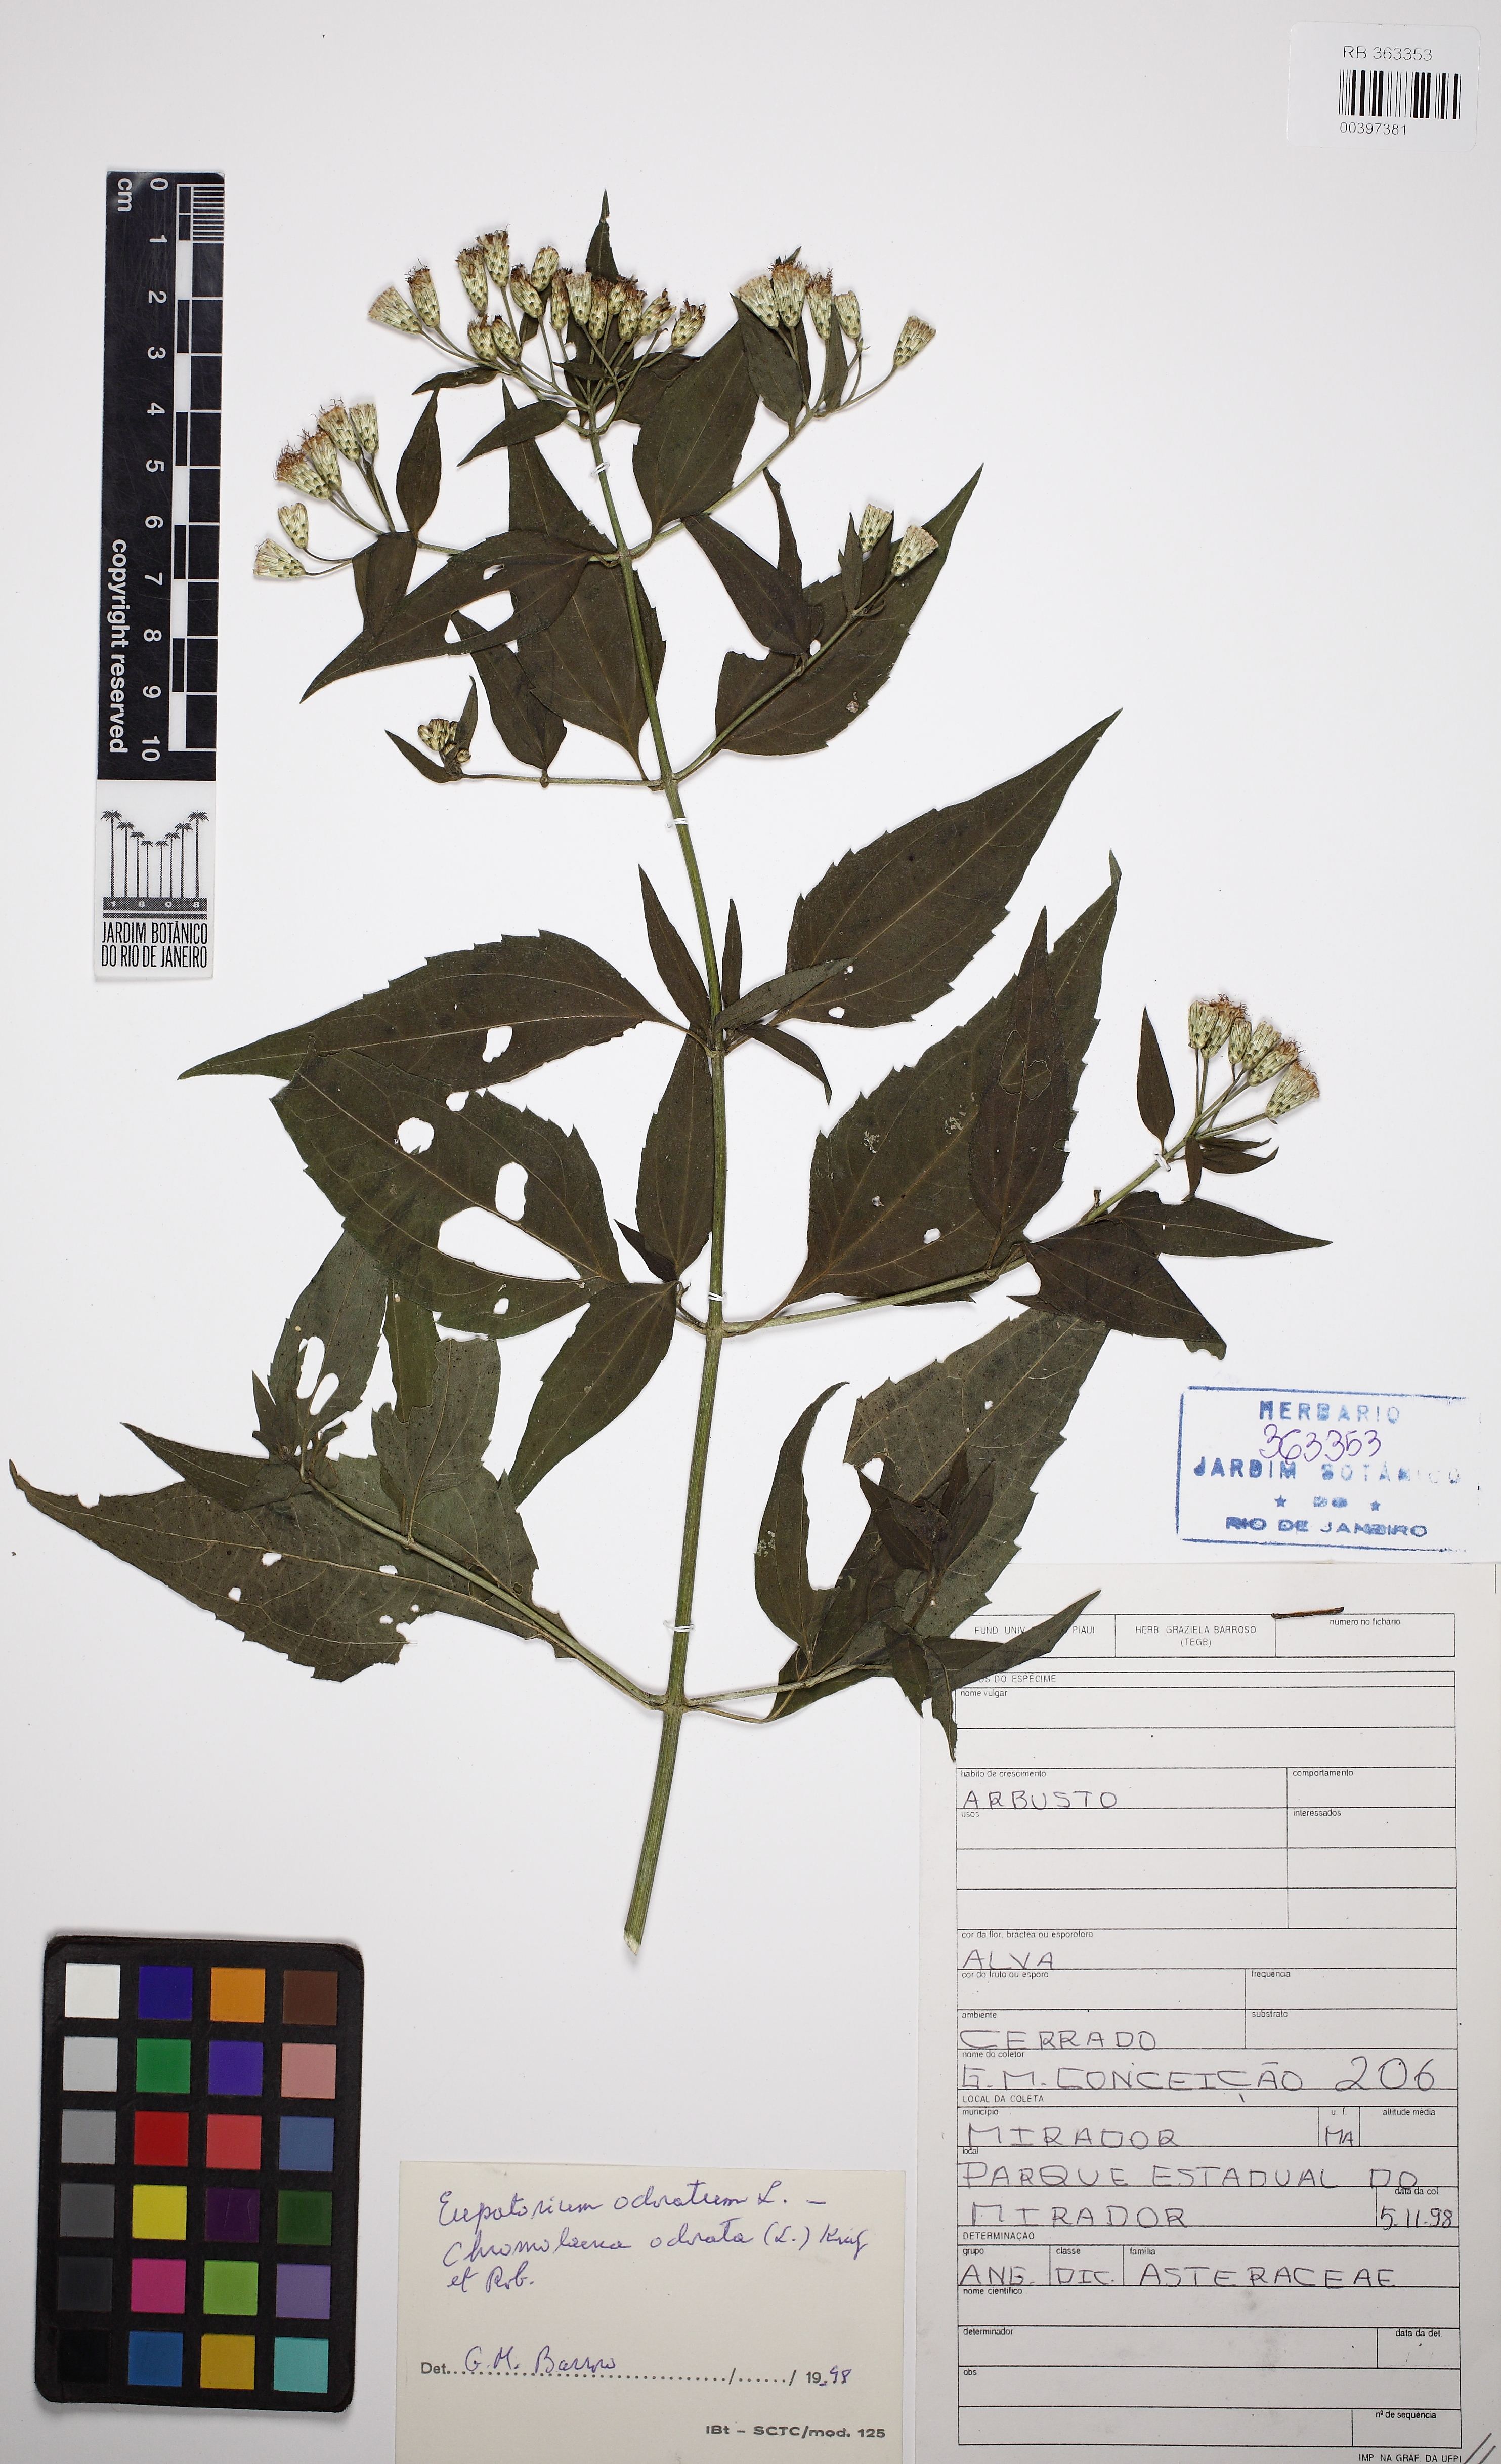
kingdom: Plantae
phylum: Tracheophyta
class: Magnoliopsida
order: Asterales
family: Asteraceae
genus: Chromolaena
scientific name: Chromolaena odorata
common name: Siamweed
